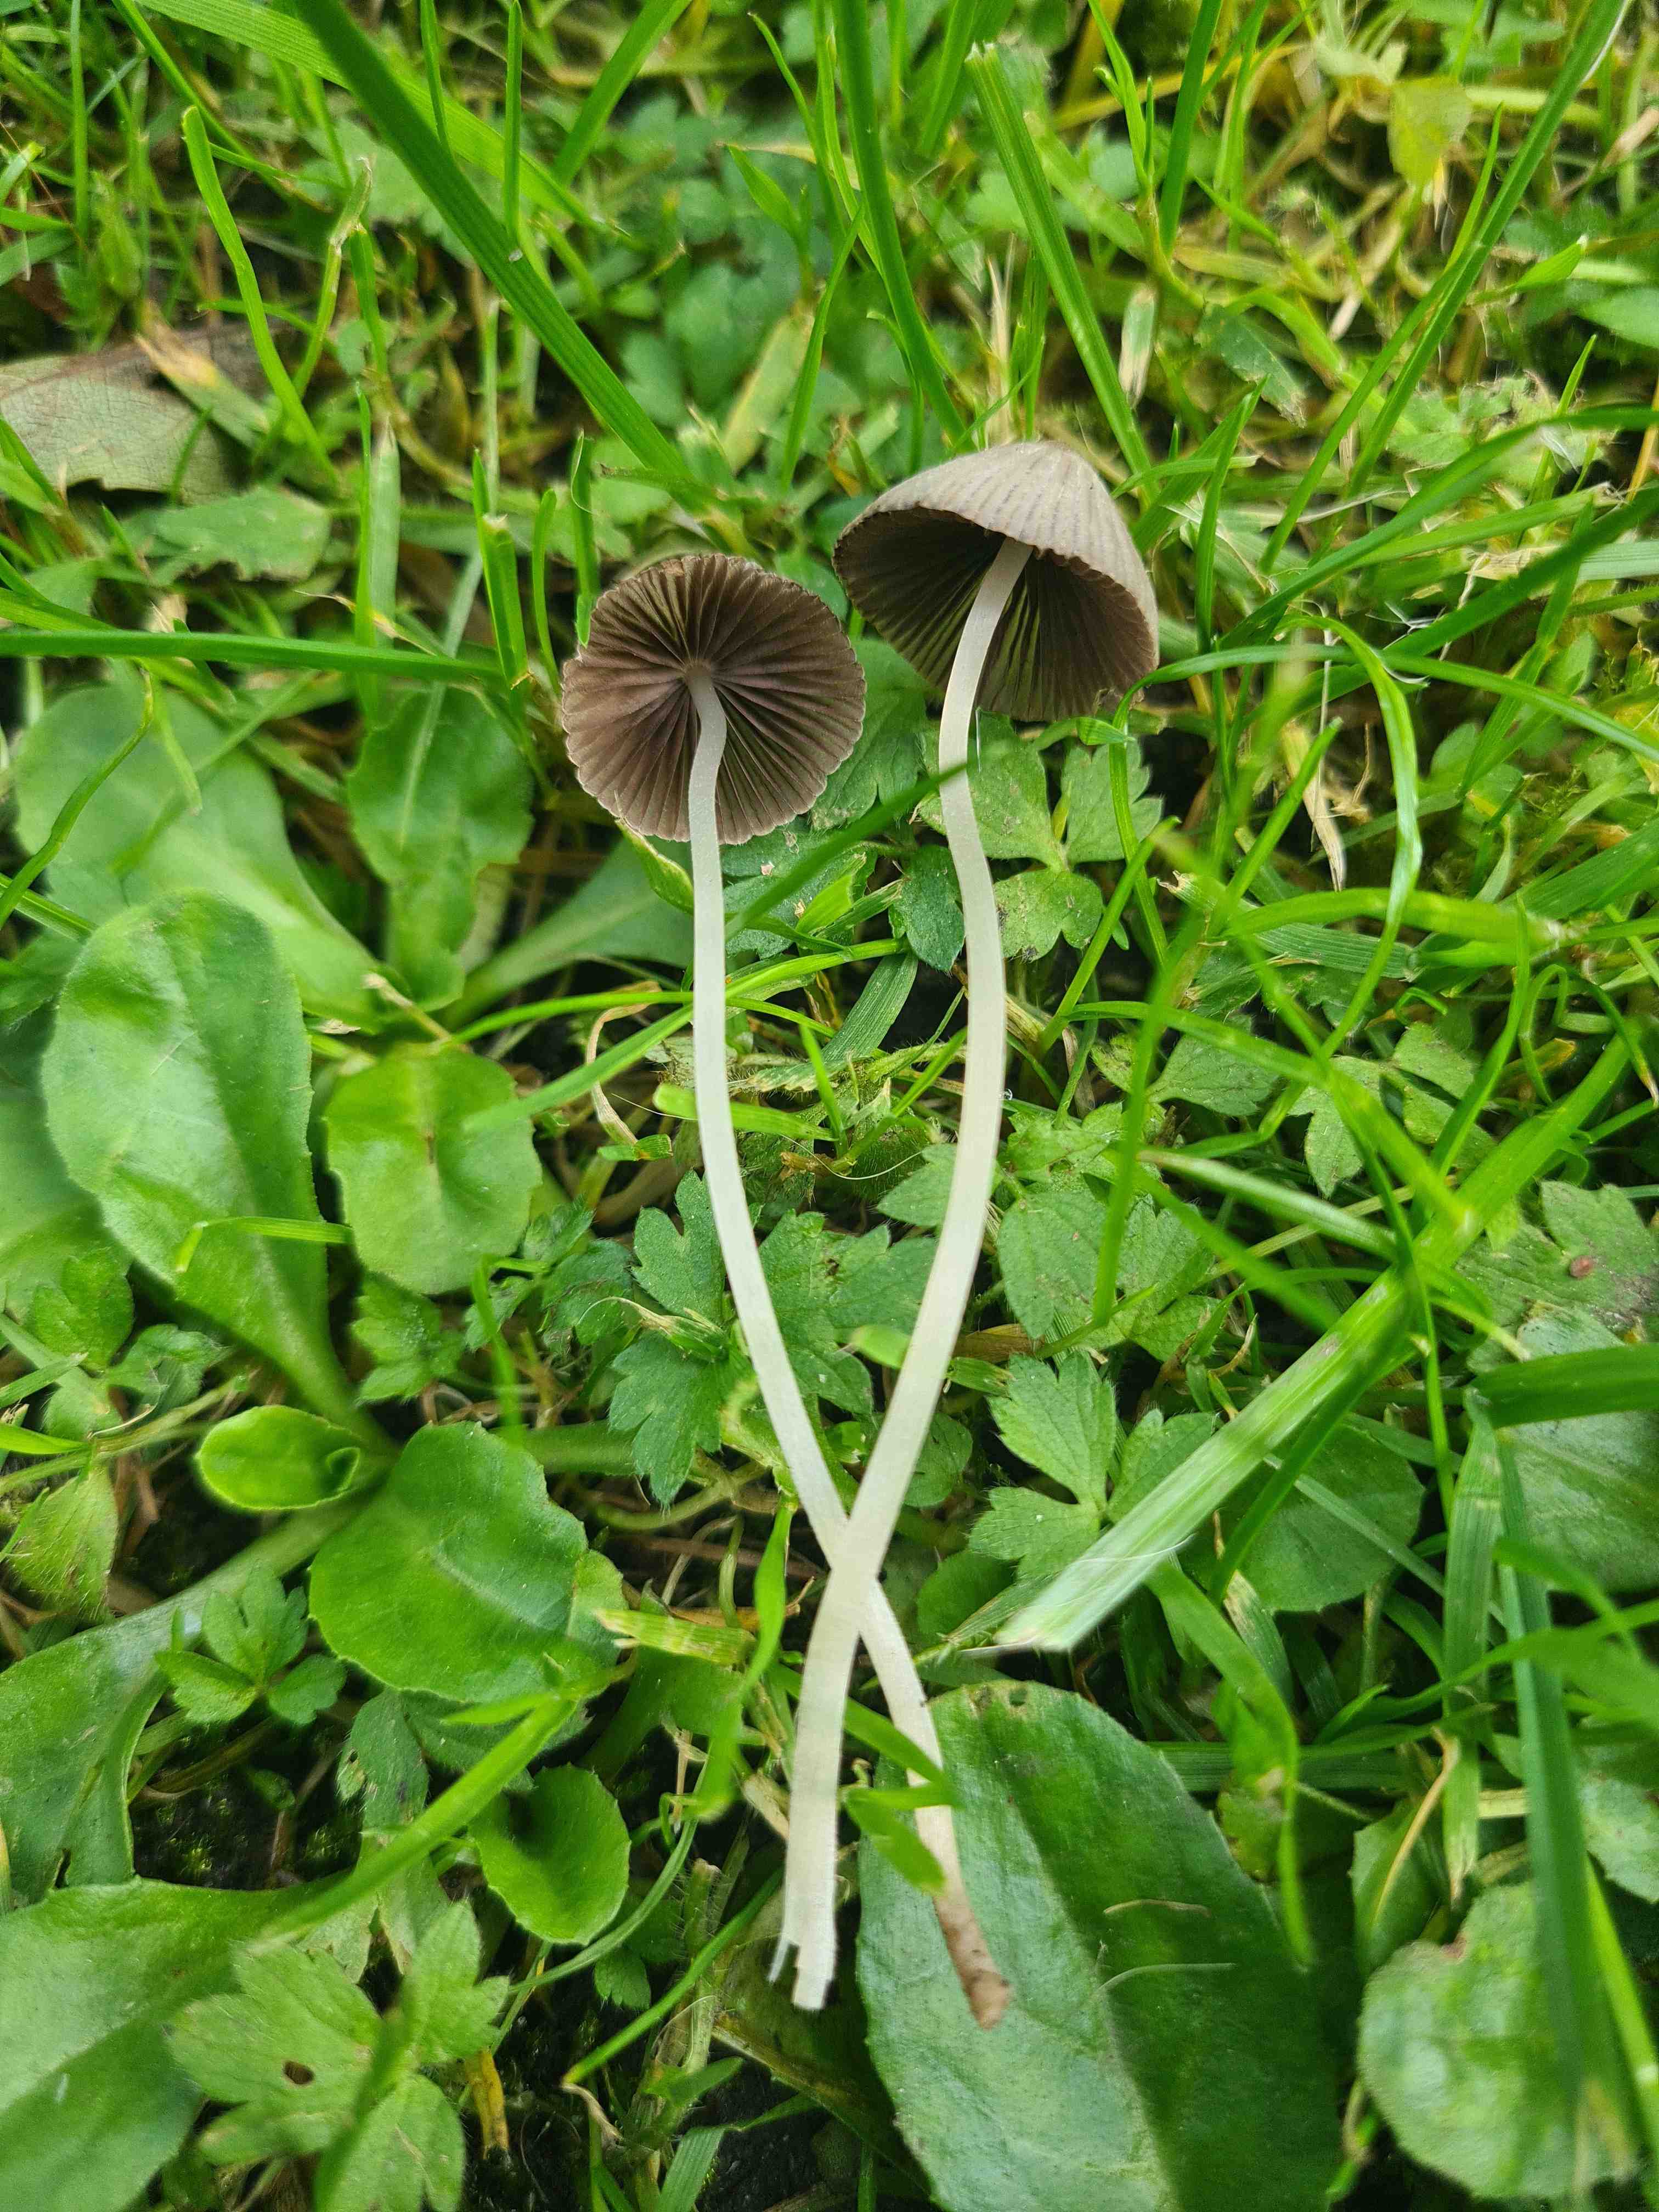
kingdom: Fungi
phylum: Basidiomycota
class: Agaricomycetes
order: Agaricales
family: Psathyrellaceae
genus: Coprinellus
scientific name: Coprinellus disseminatus
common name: bredsået blækhat
